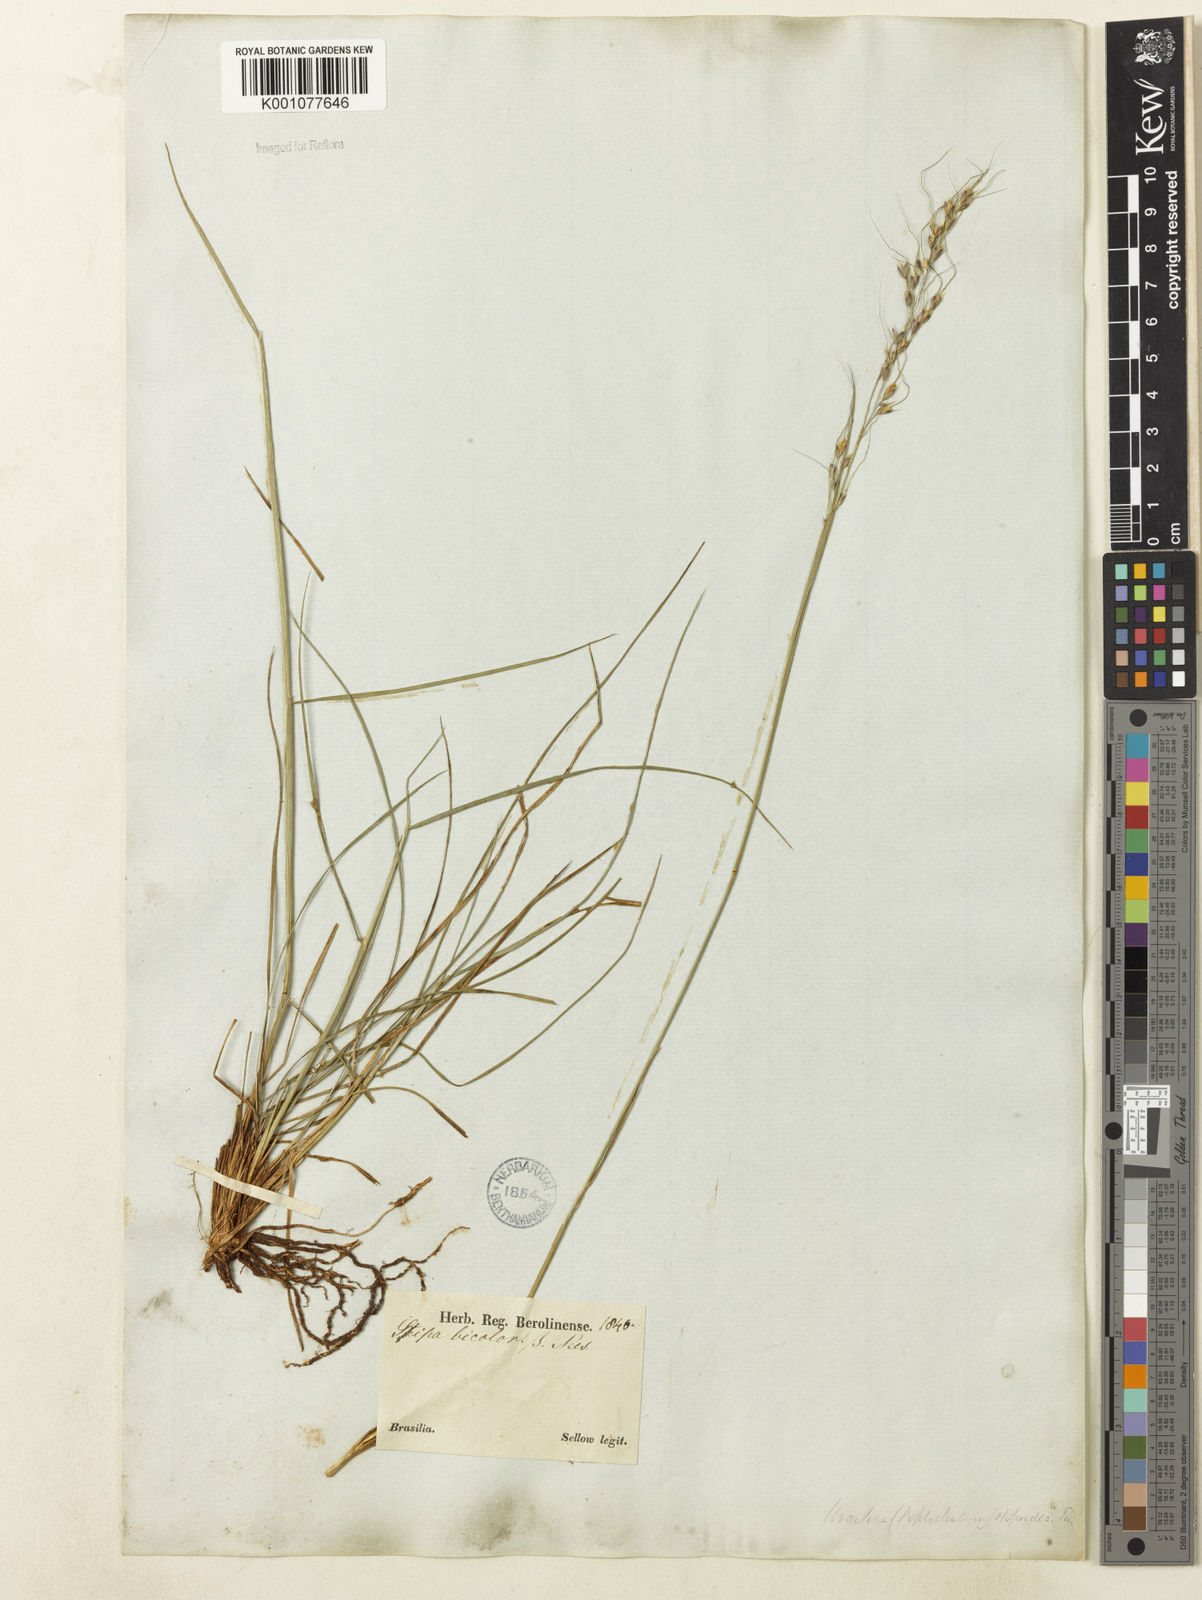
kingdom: Plantae
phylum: Tracheophyta
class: Liliopsida
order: Poales
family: Poaceae
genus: Piptochaetium
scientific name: Piptochaetium bicolor
